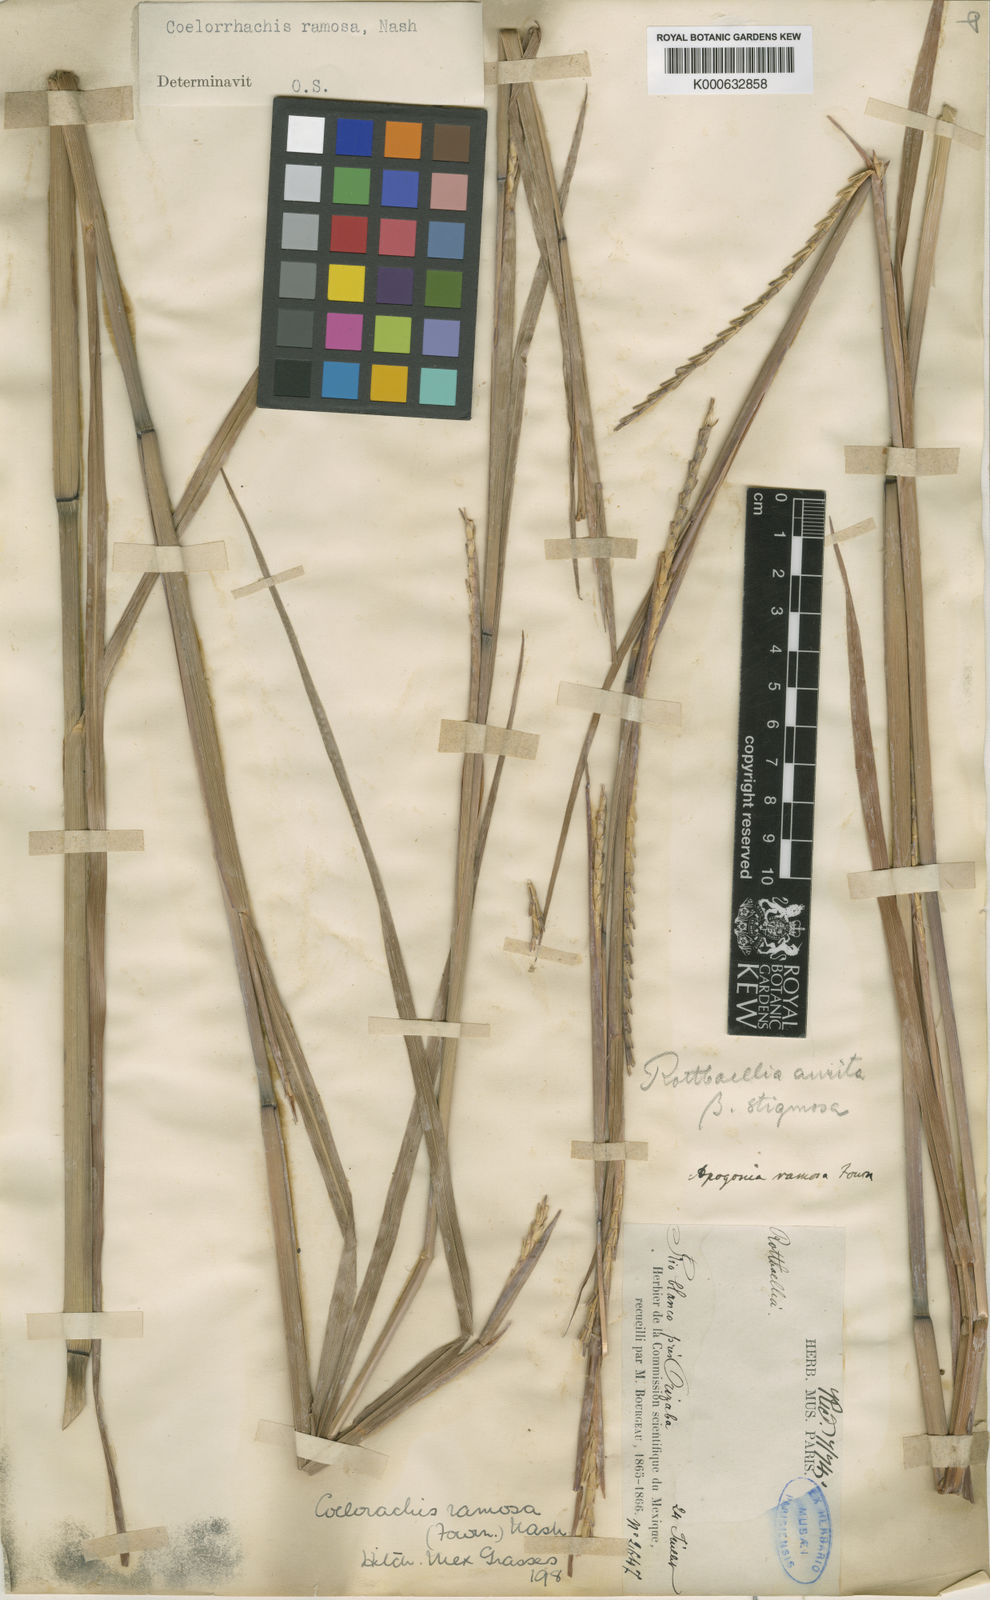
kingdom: Plantae
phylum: Tracheophyta
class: Liliopsida
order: Poales
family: Poaceae
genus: Rottboellia
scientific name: Rottboellia Coelorachis ramosa
